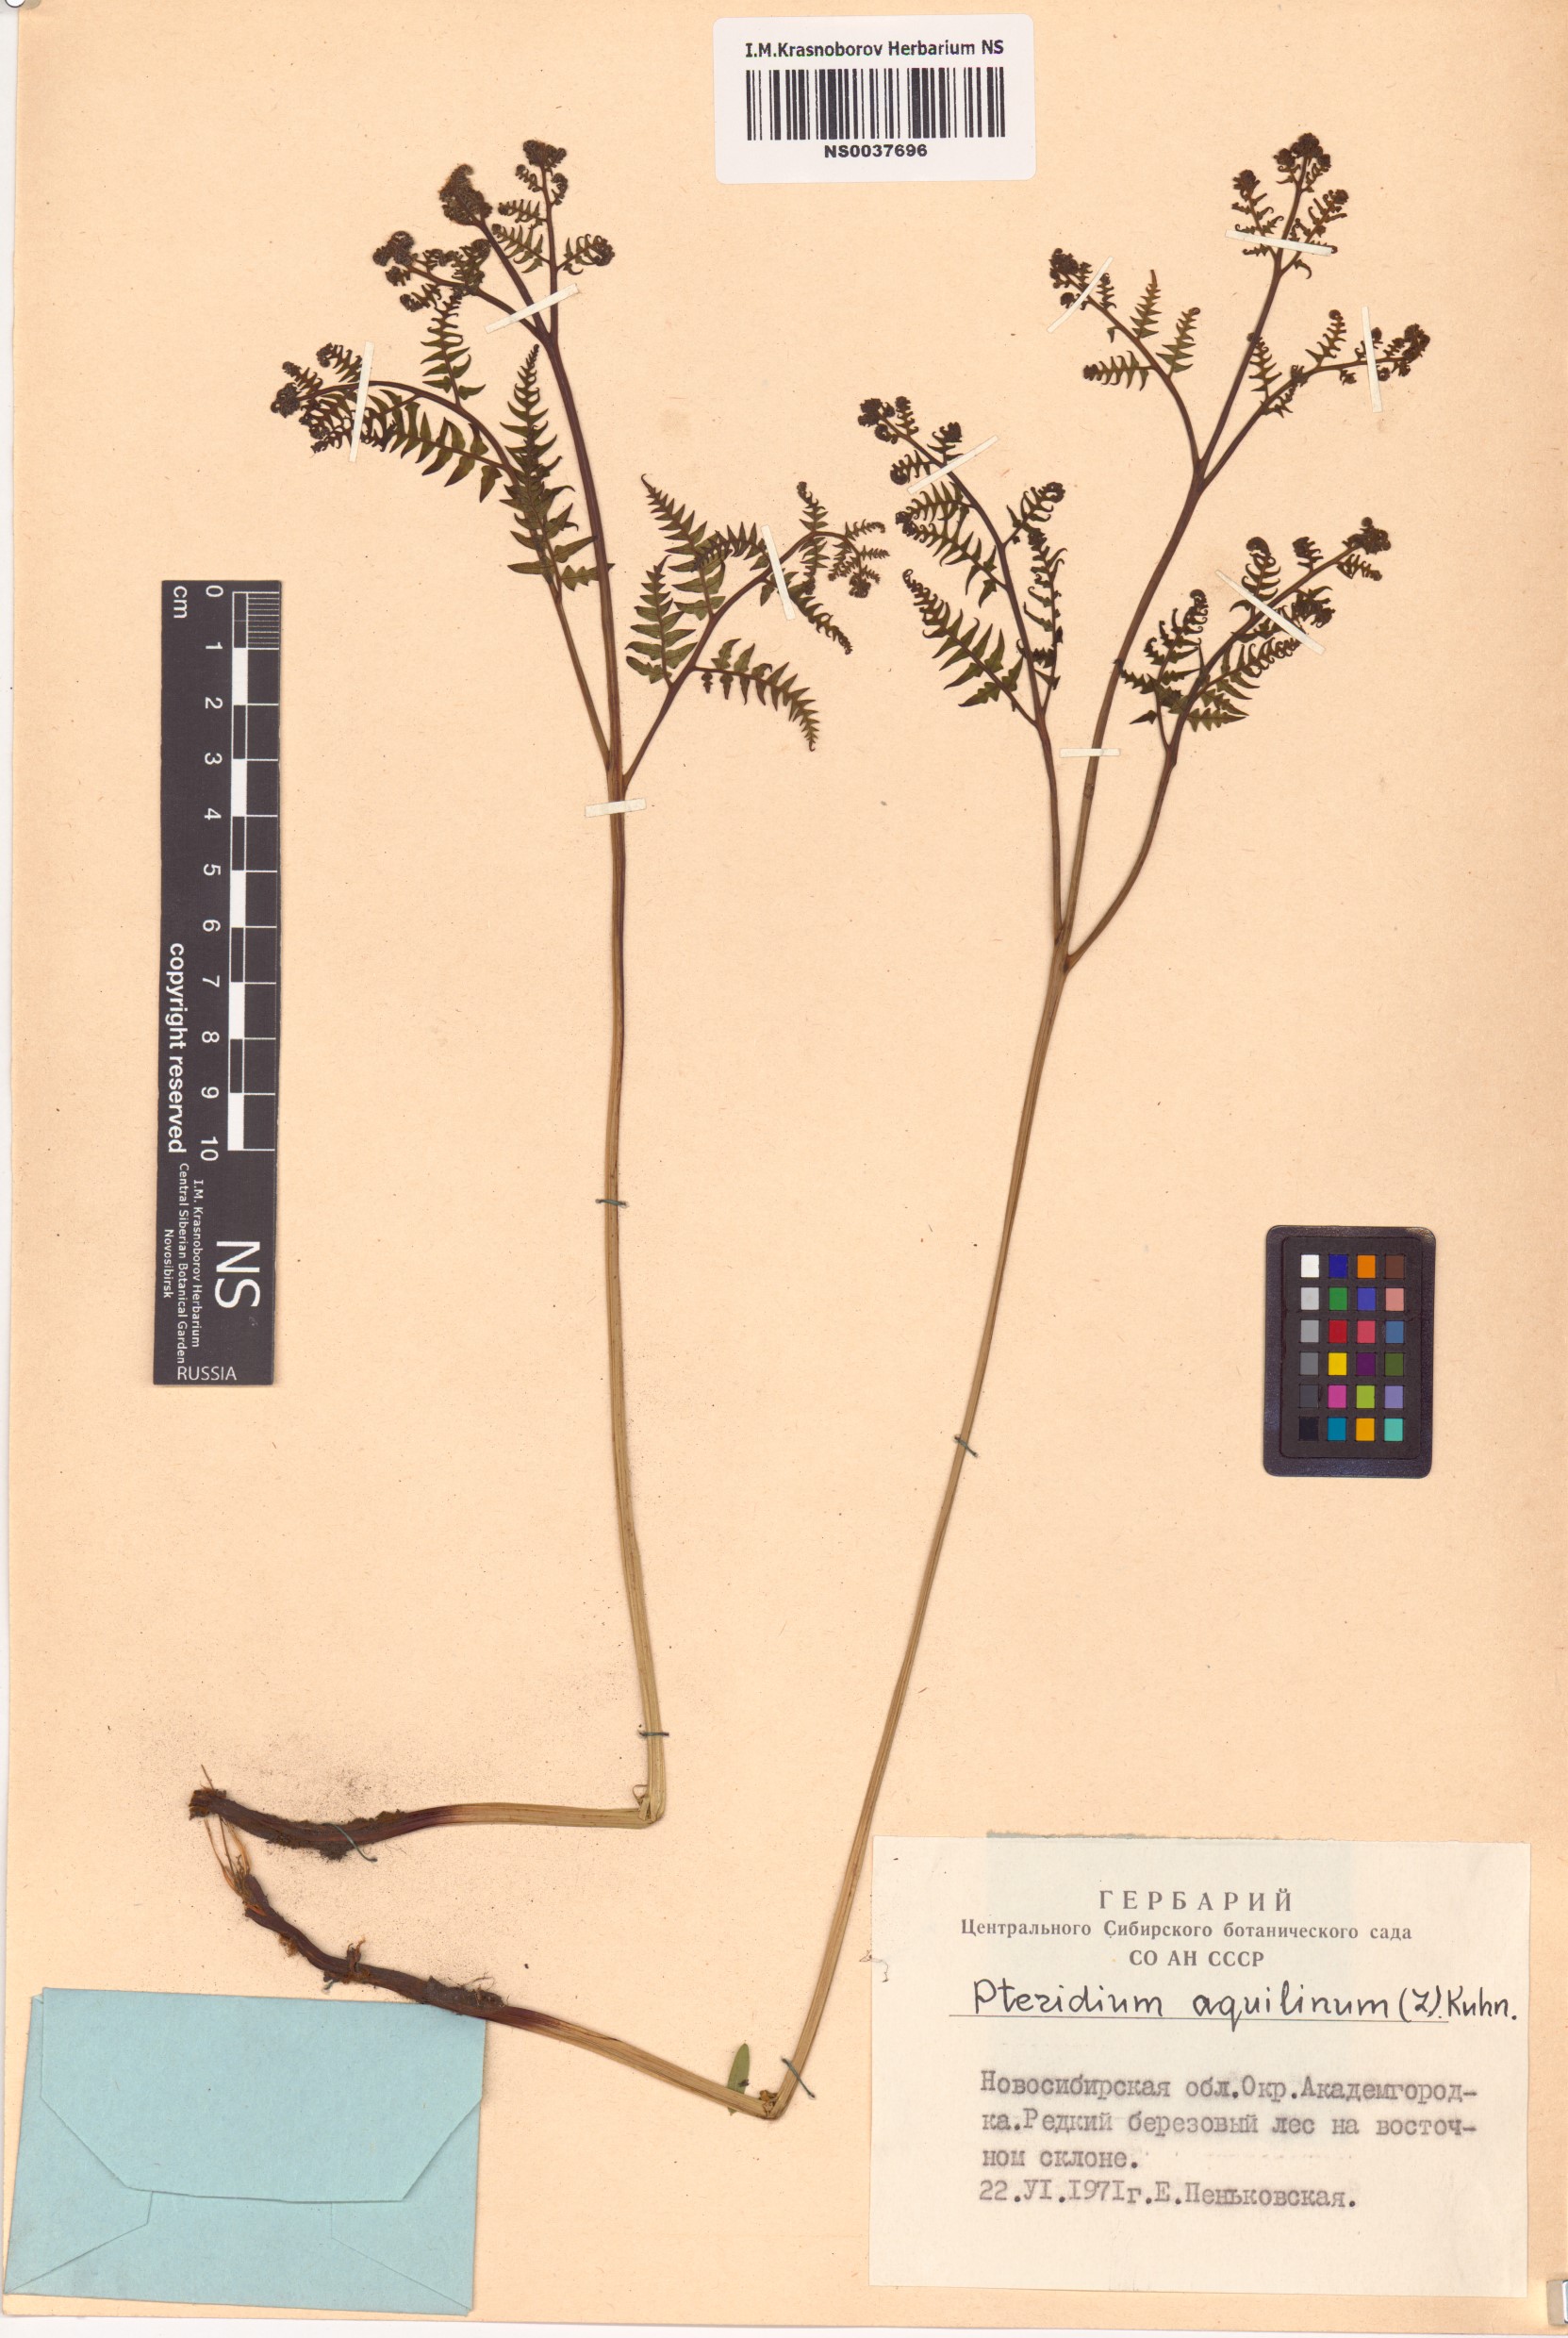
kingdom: Plantae
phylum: Tracheophyta
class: Polypodiopsida
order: Polypodiales
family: Dennstaedtiaceae
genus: Pteridium
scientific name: Pteridium aquilinum
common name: Bracken
